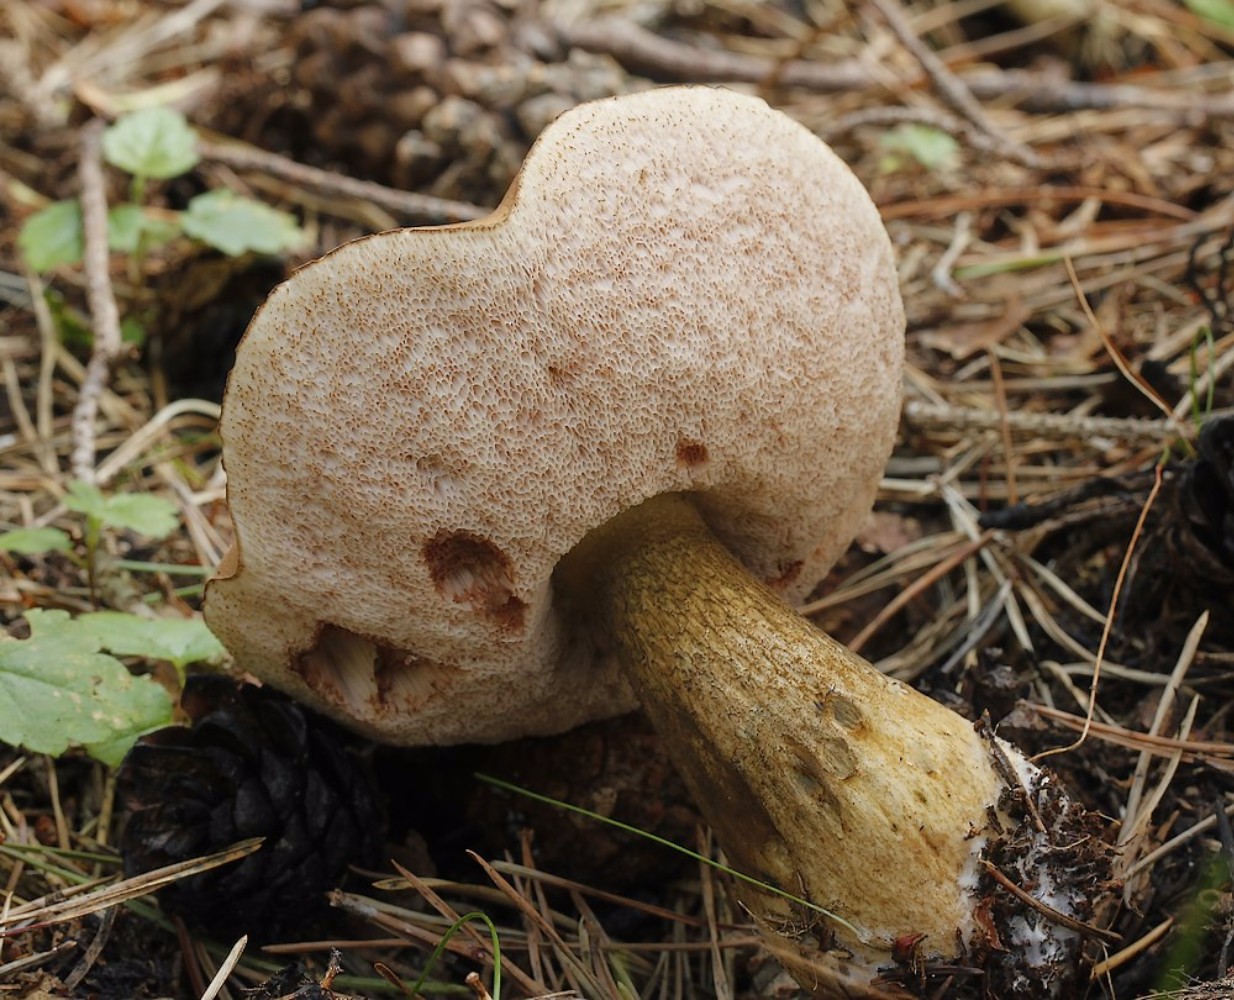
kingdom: Fungi
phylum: Basidiomycota
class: Agaricomycetes
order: Boletales
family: Boletaceae
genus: Tylopilus
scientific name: Tylopilus felleus
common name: galderørhat
